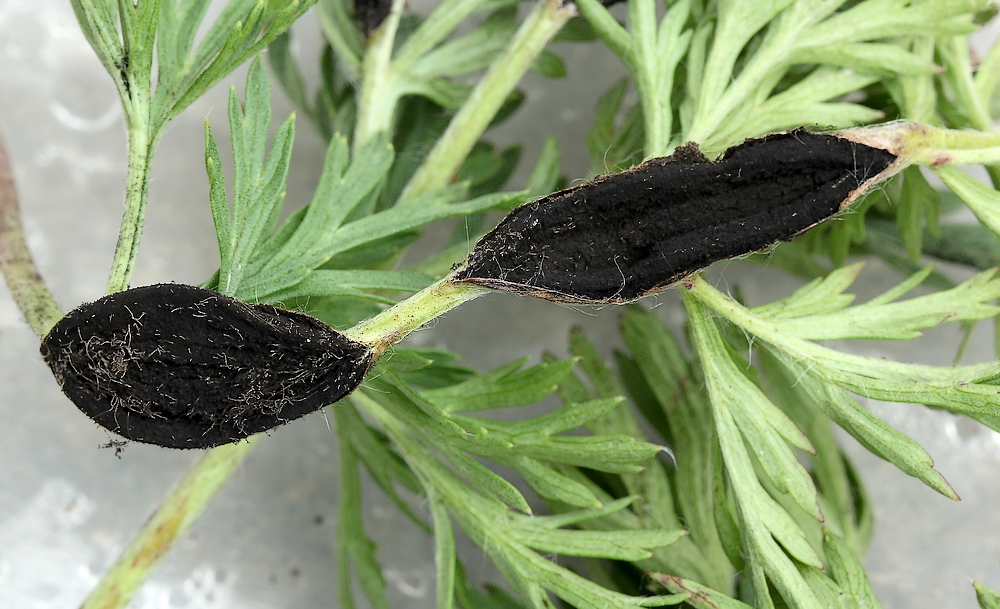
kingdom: Fungi
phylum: Basidiomycota
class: Ustilaginomycetes
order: Urocystidales
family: Urocystidaceae
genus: Urocystis
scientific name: Urocystis pulsatillae
